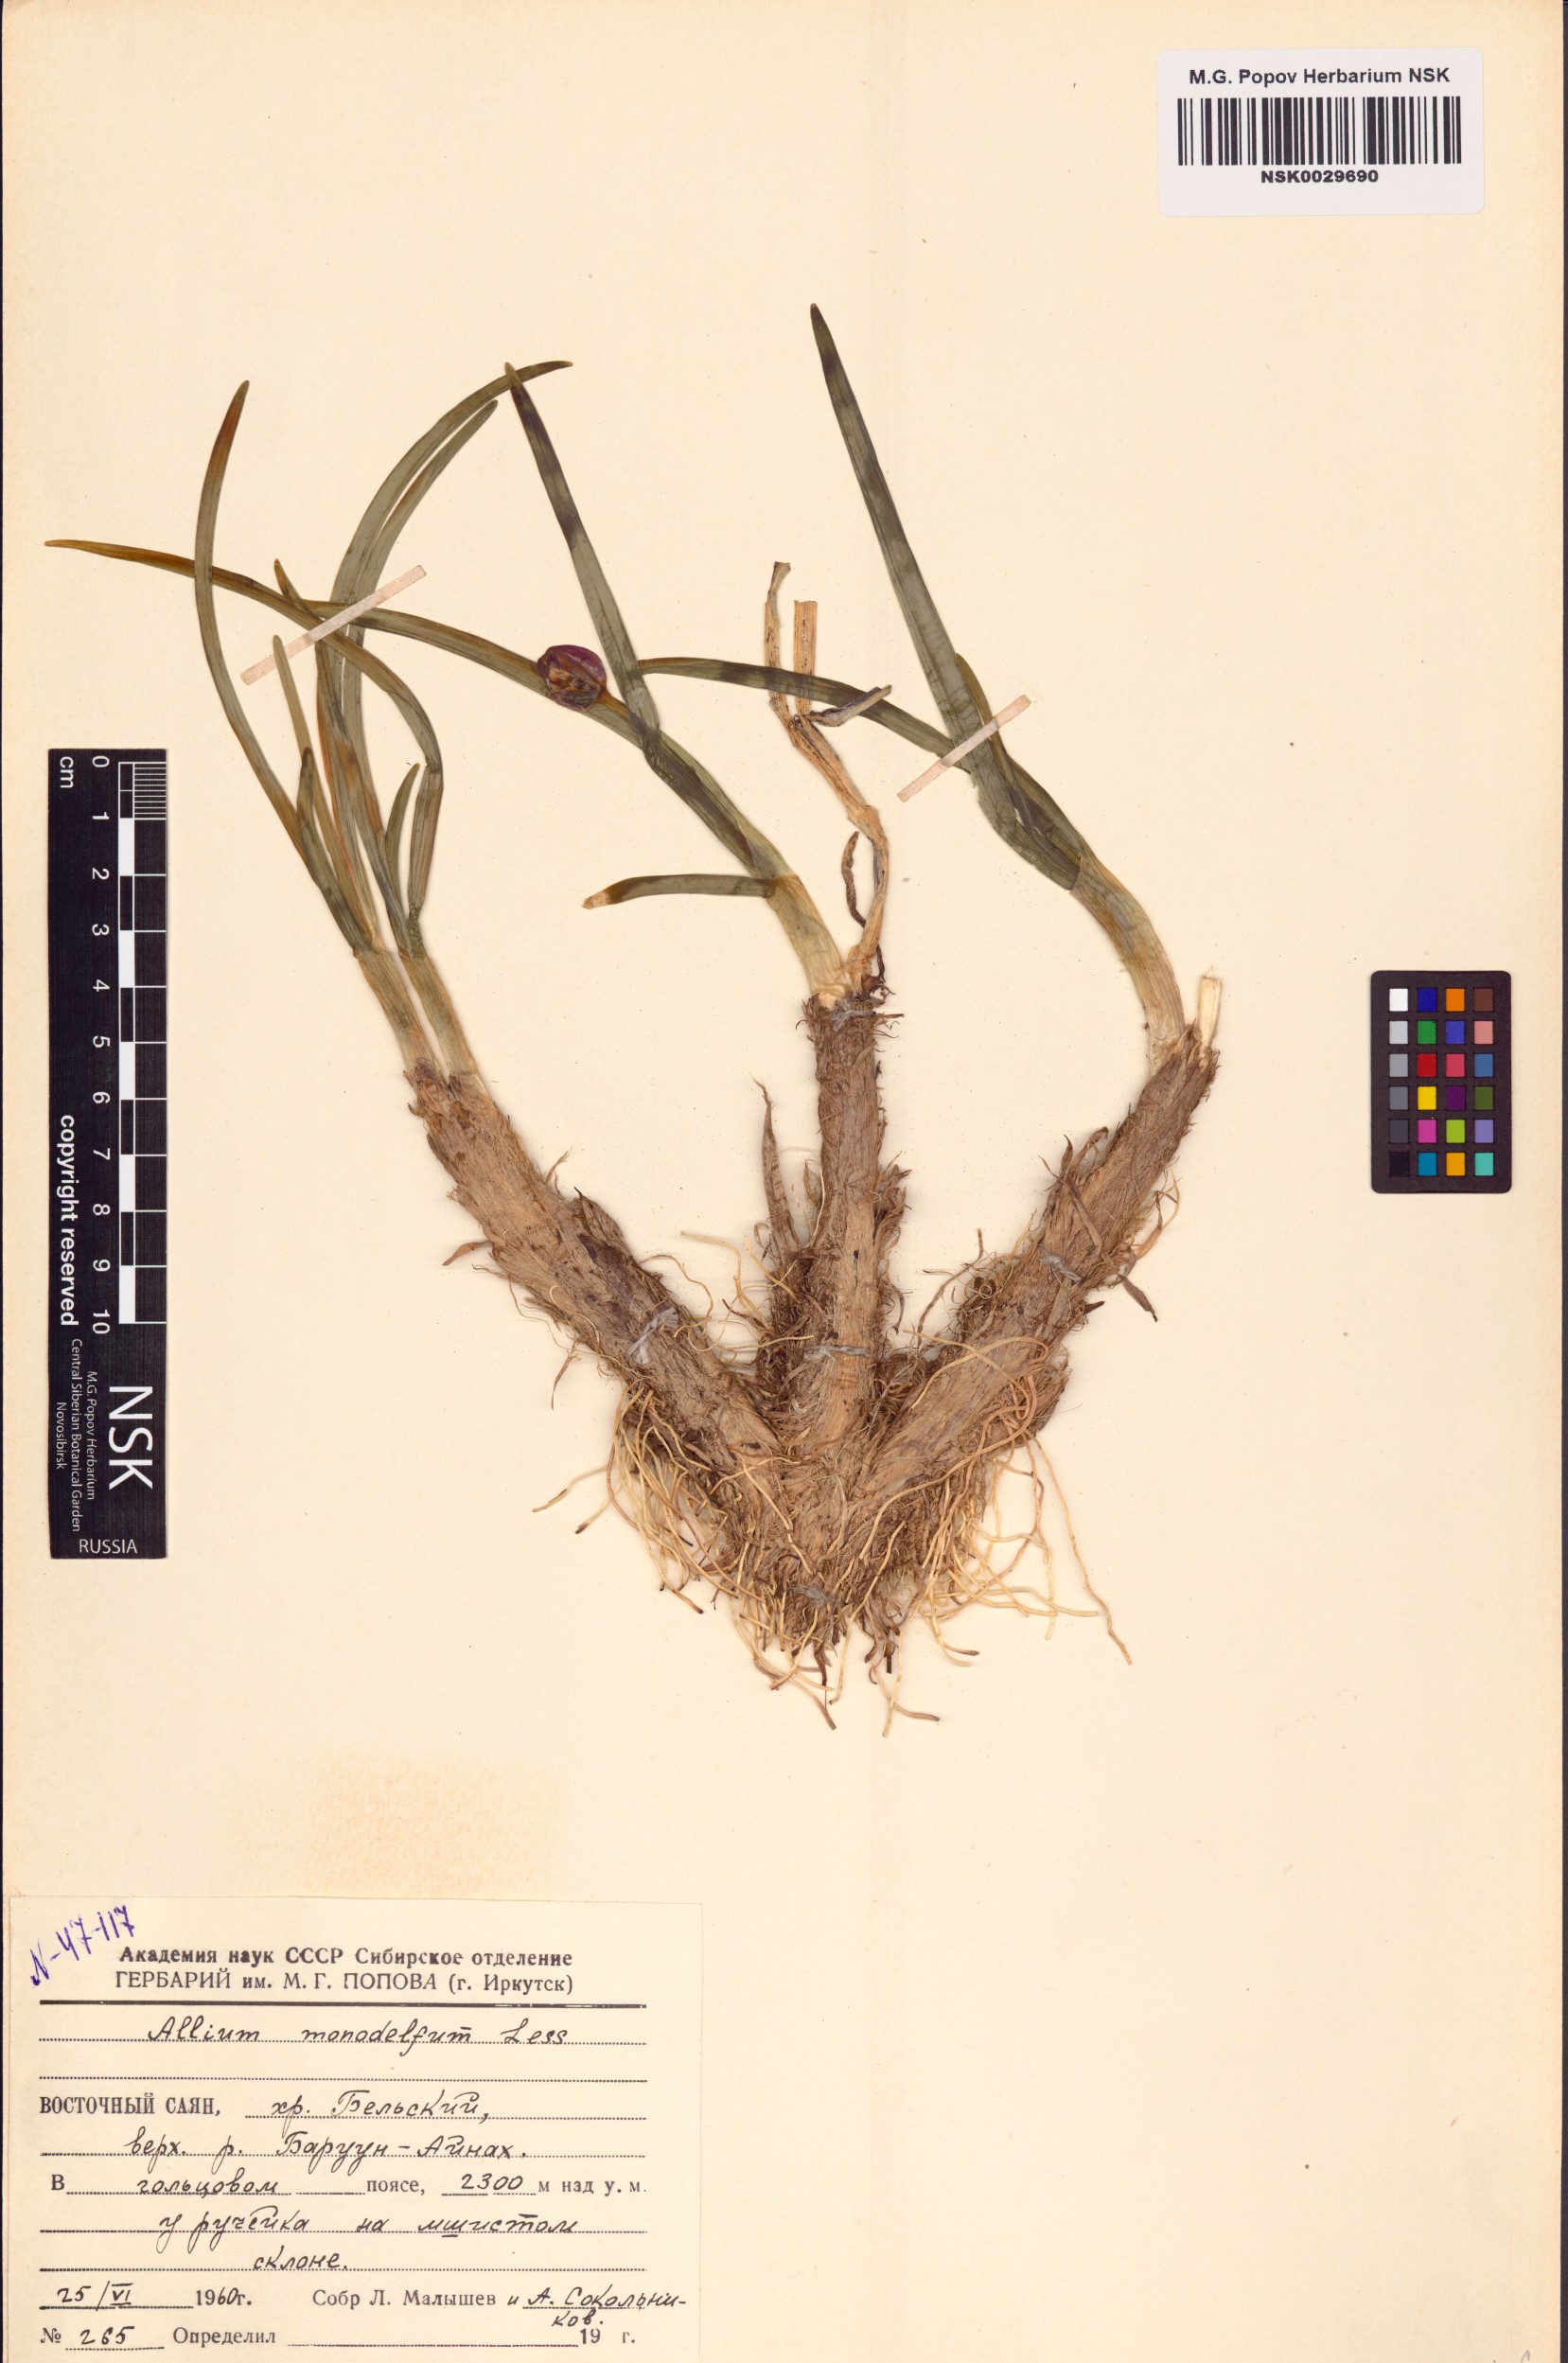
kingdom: Plantae
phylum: Tracheophyta
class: Liliopsida
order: Asparagales
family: Amaryllidaceae
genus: Allium
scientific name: Allium atrosanguineum
